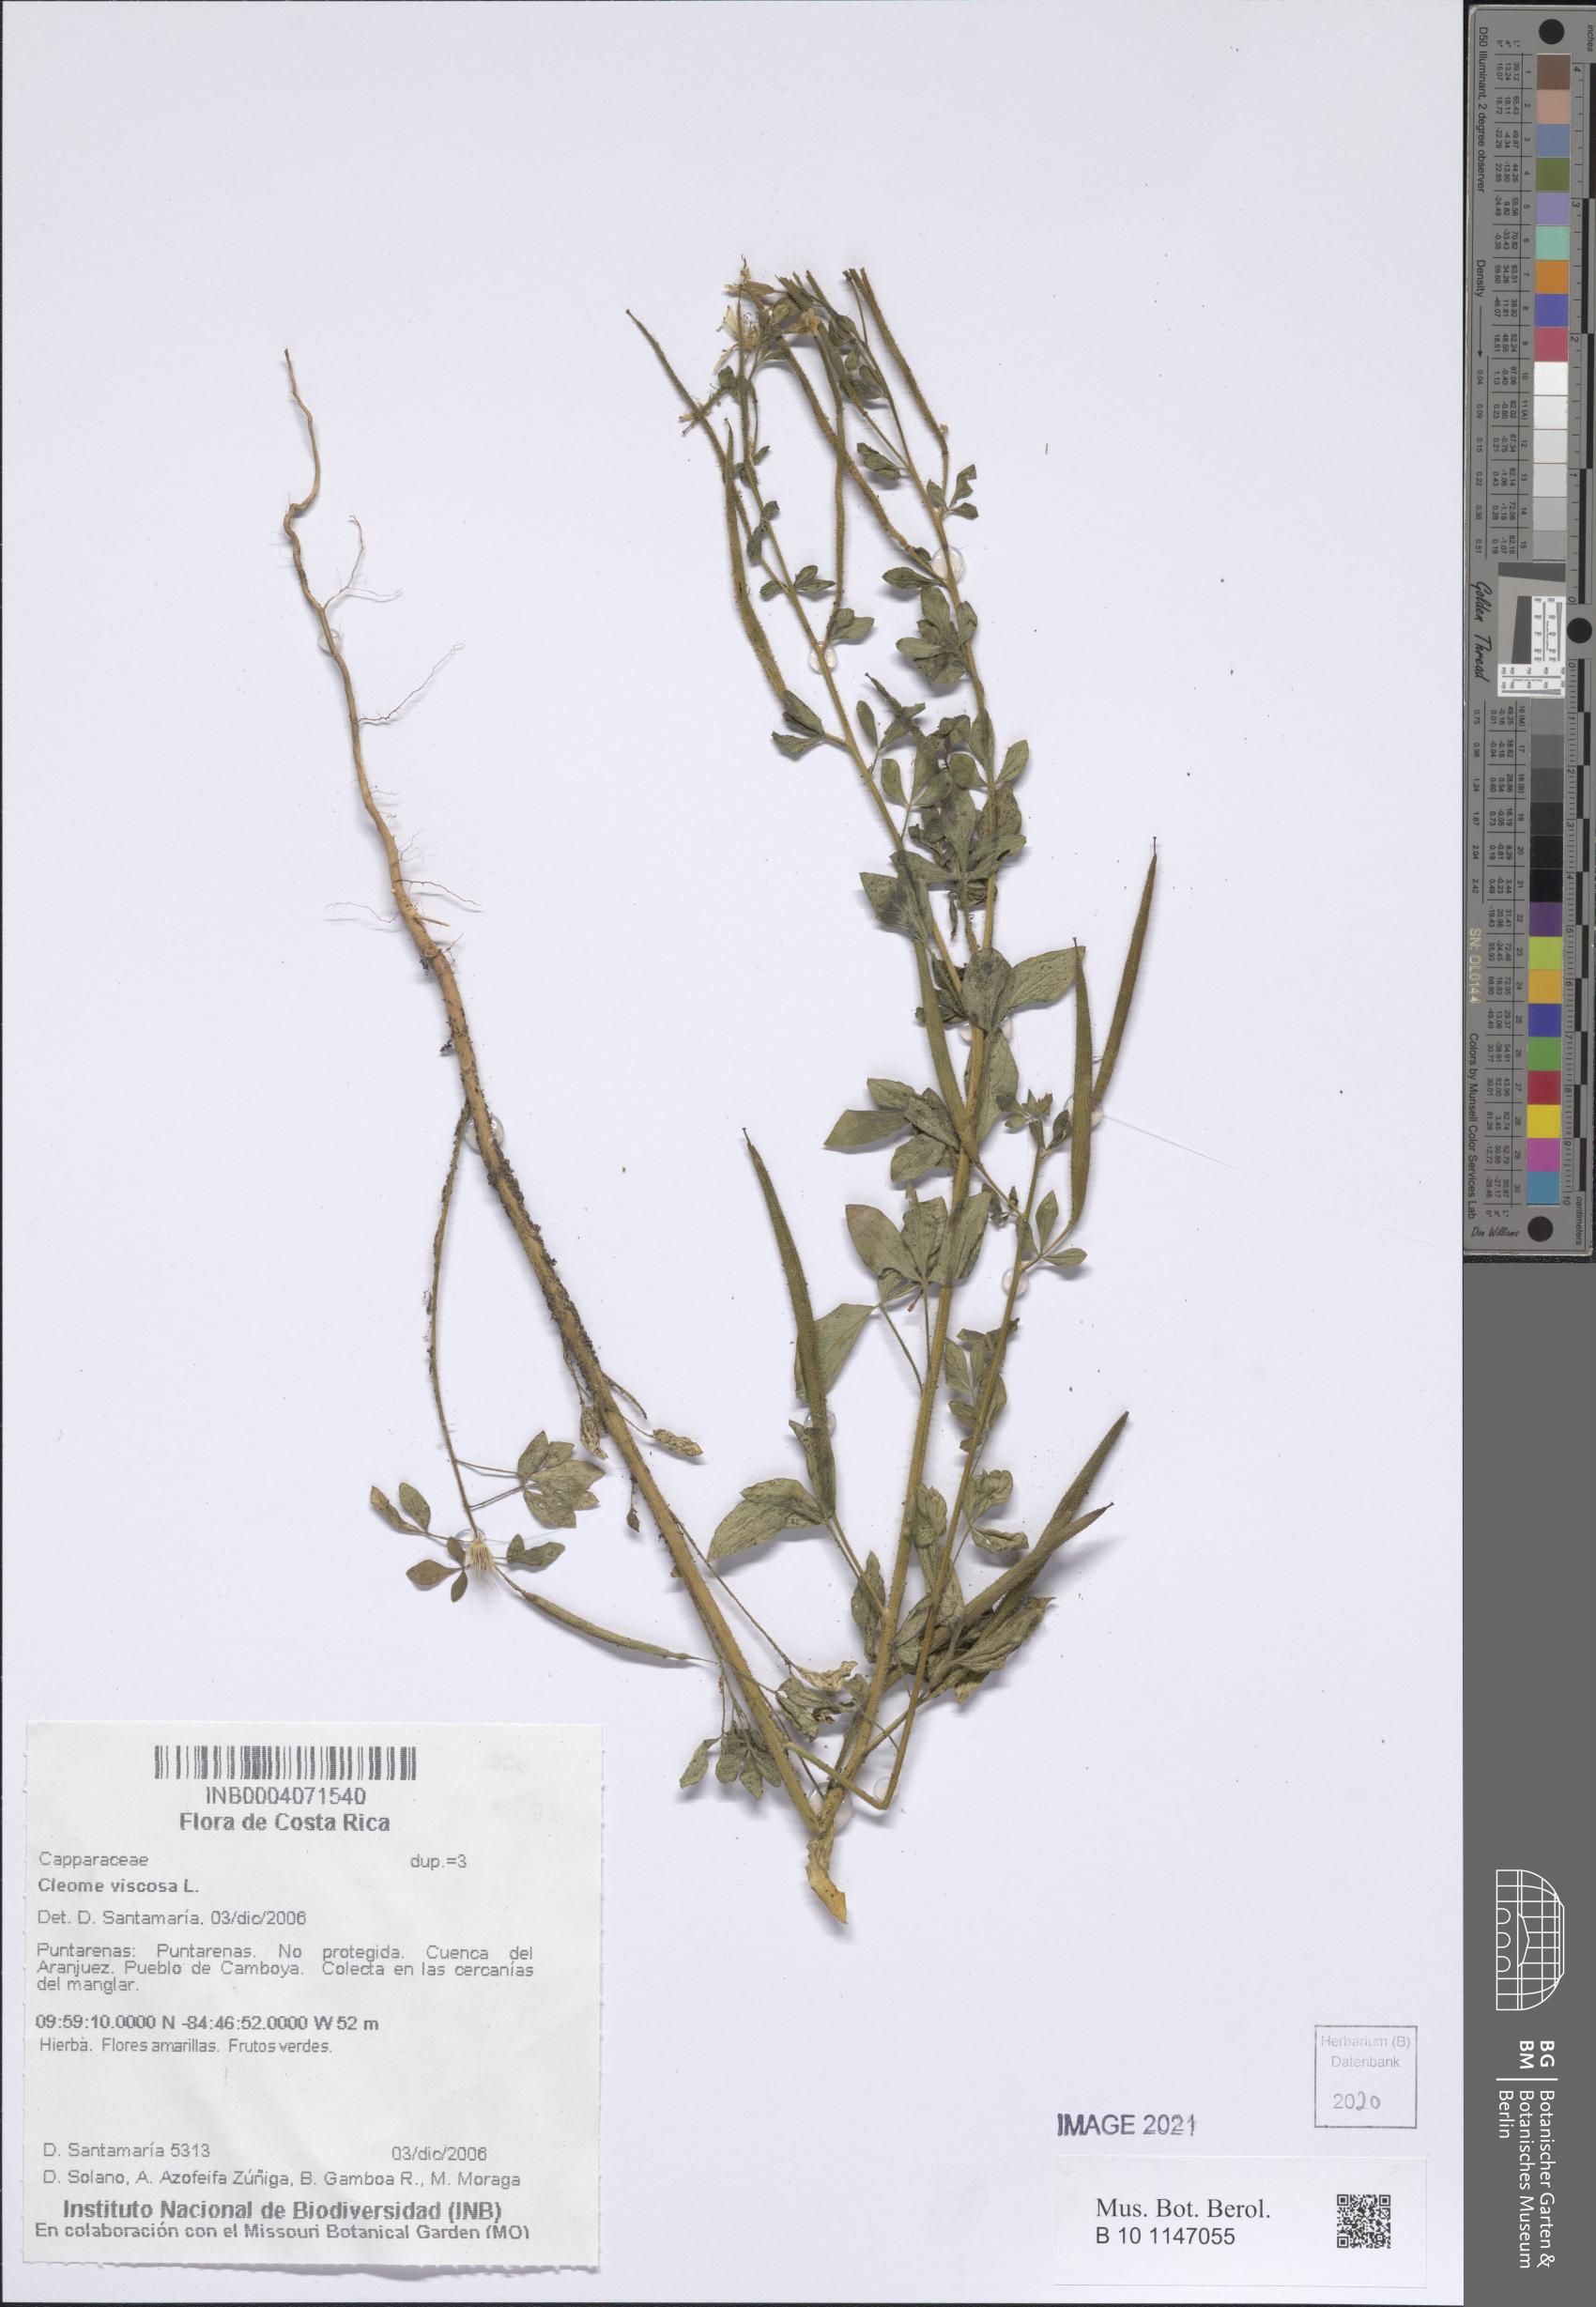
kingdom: Plantae
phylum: Tracheophyta
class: Magnoliopsida
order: Brassicales
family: Cleomaceae
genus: Arivela
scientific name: Arivela viscosa
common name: Asian spiderflower
